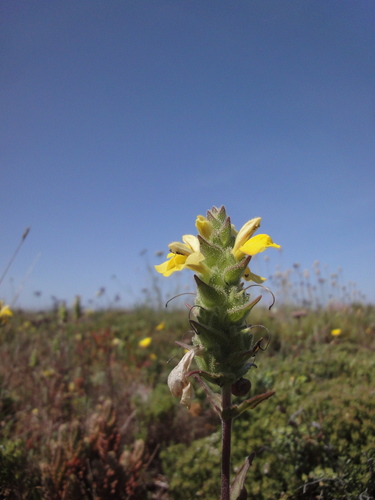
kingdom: Plantae
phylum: Tracheophyta
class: Magnoliopsida
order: Lamiales
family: Orobanchaceae
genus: Bellardia
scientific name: Bellardia trixago
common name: Mediterranean lineseed
